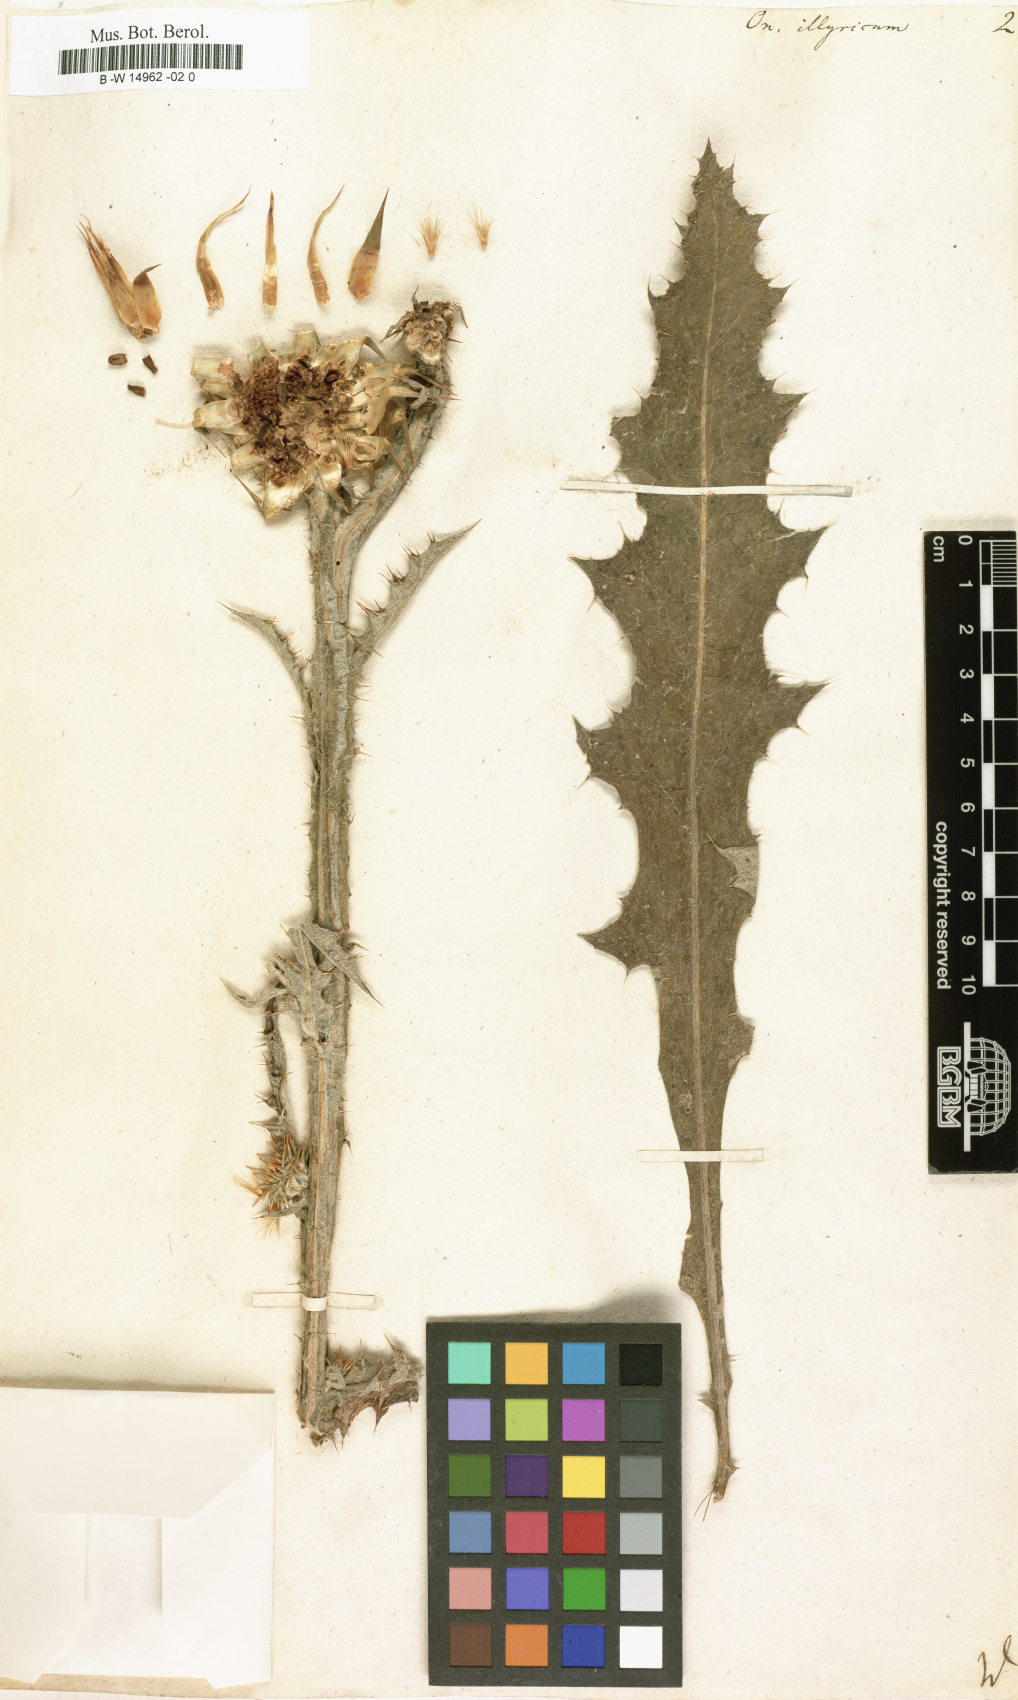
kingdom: Plantae
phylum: Tracheophyta
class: Magnoliopsida
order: Asterales
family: Asteraceae
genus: Onopordum
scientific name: Onopordum illyricum
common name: Illyrian thistle
